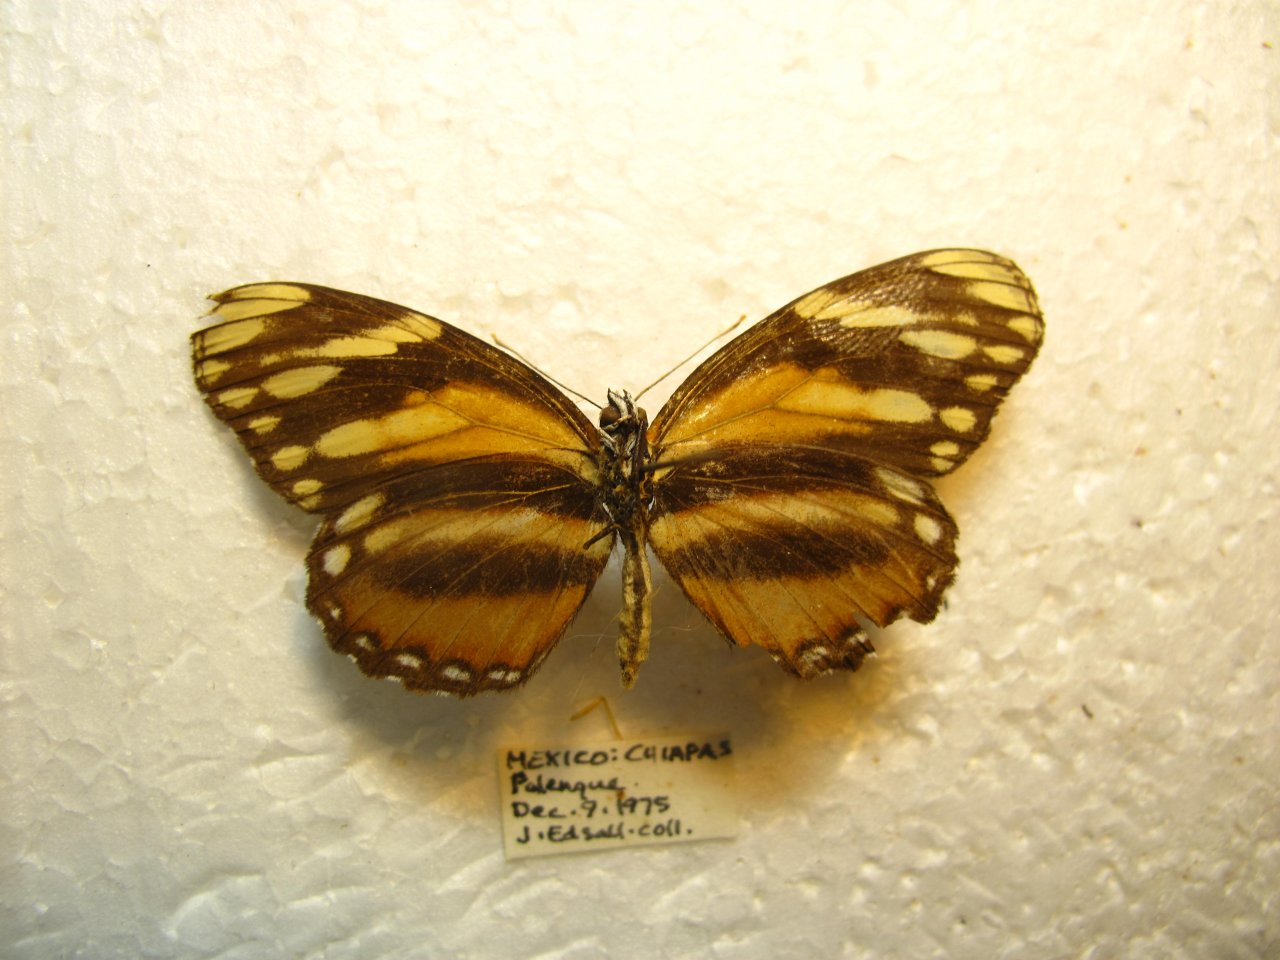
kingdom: Animalia
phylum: Arthropoda
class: Insecta
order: Lepidoptera
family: Nymphalidae
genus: Eresia
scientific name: Eresia phillyra
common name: Longwing Crescent
